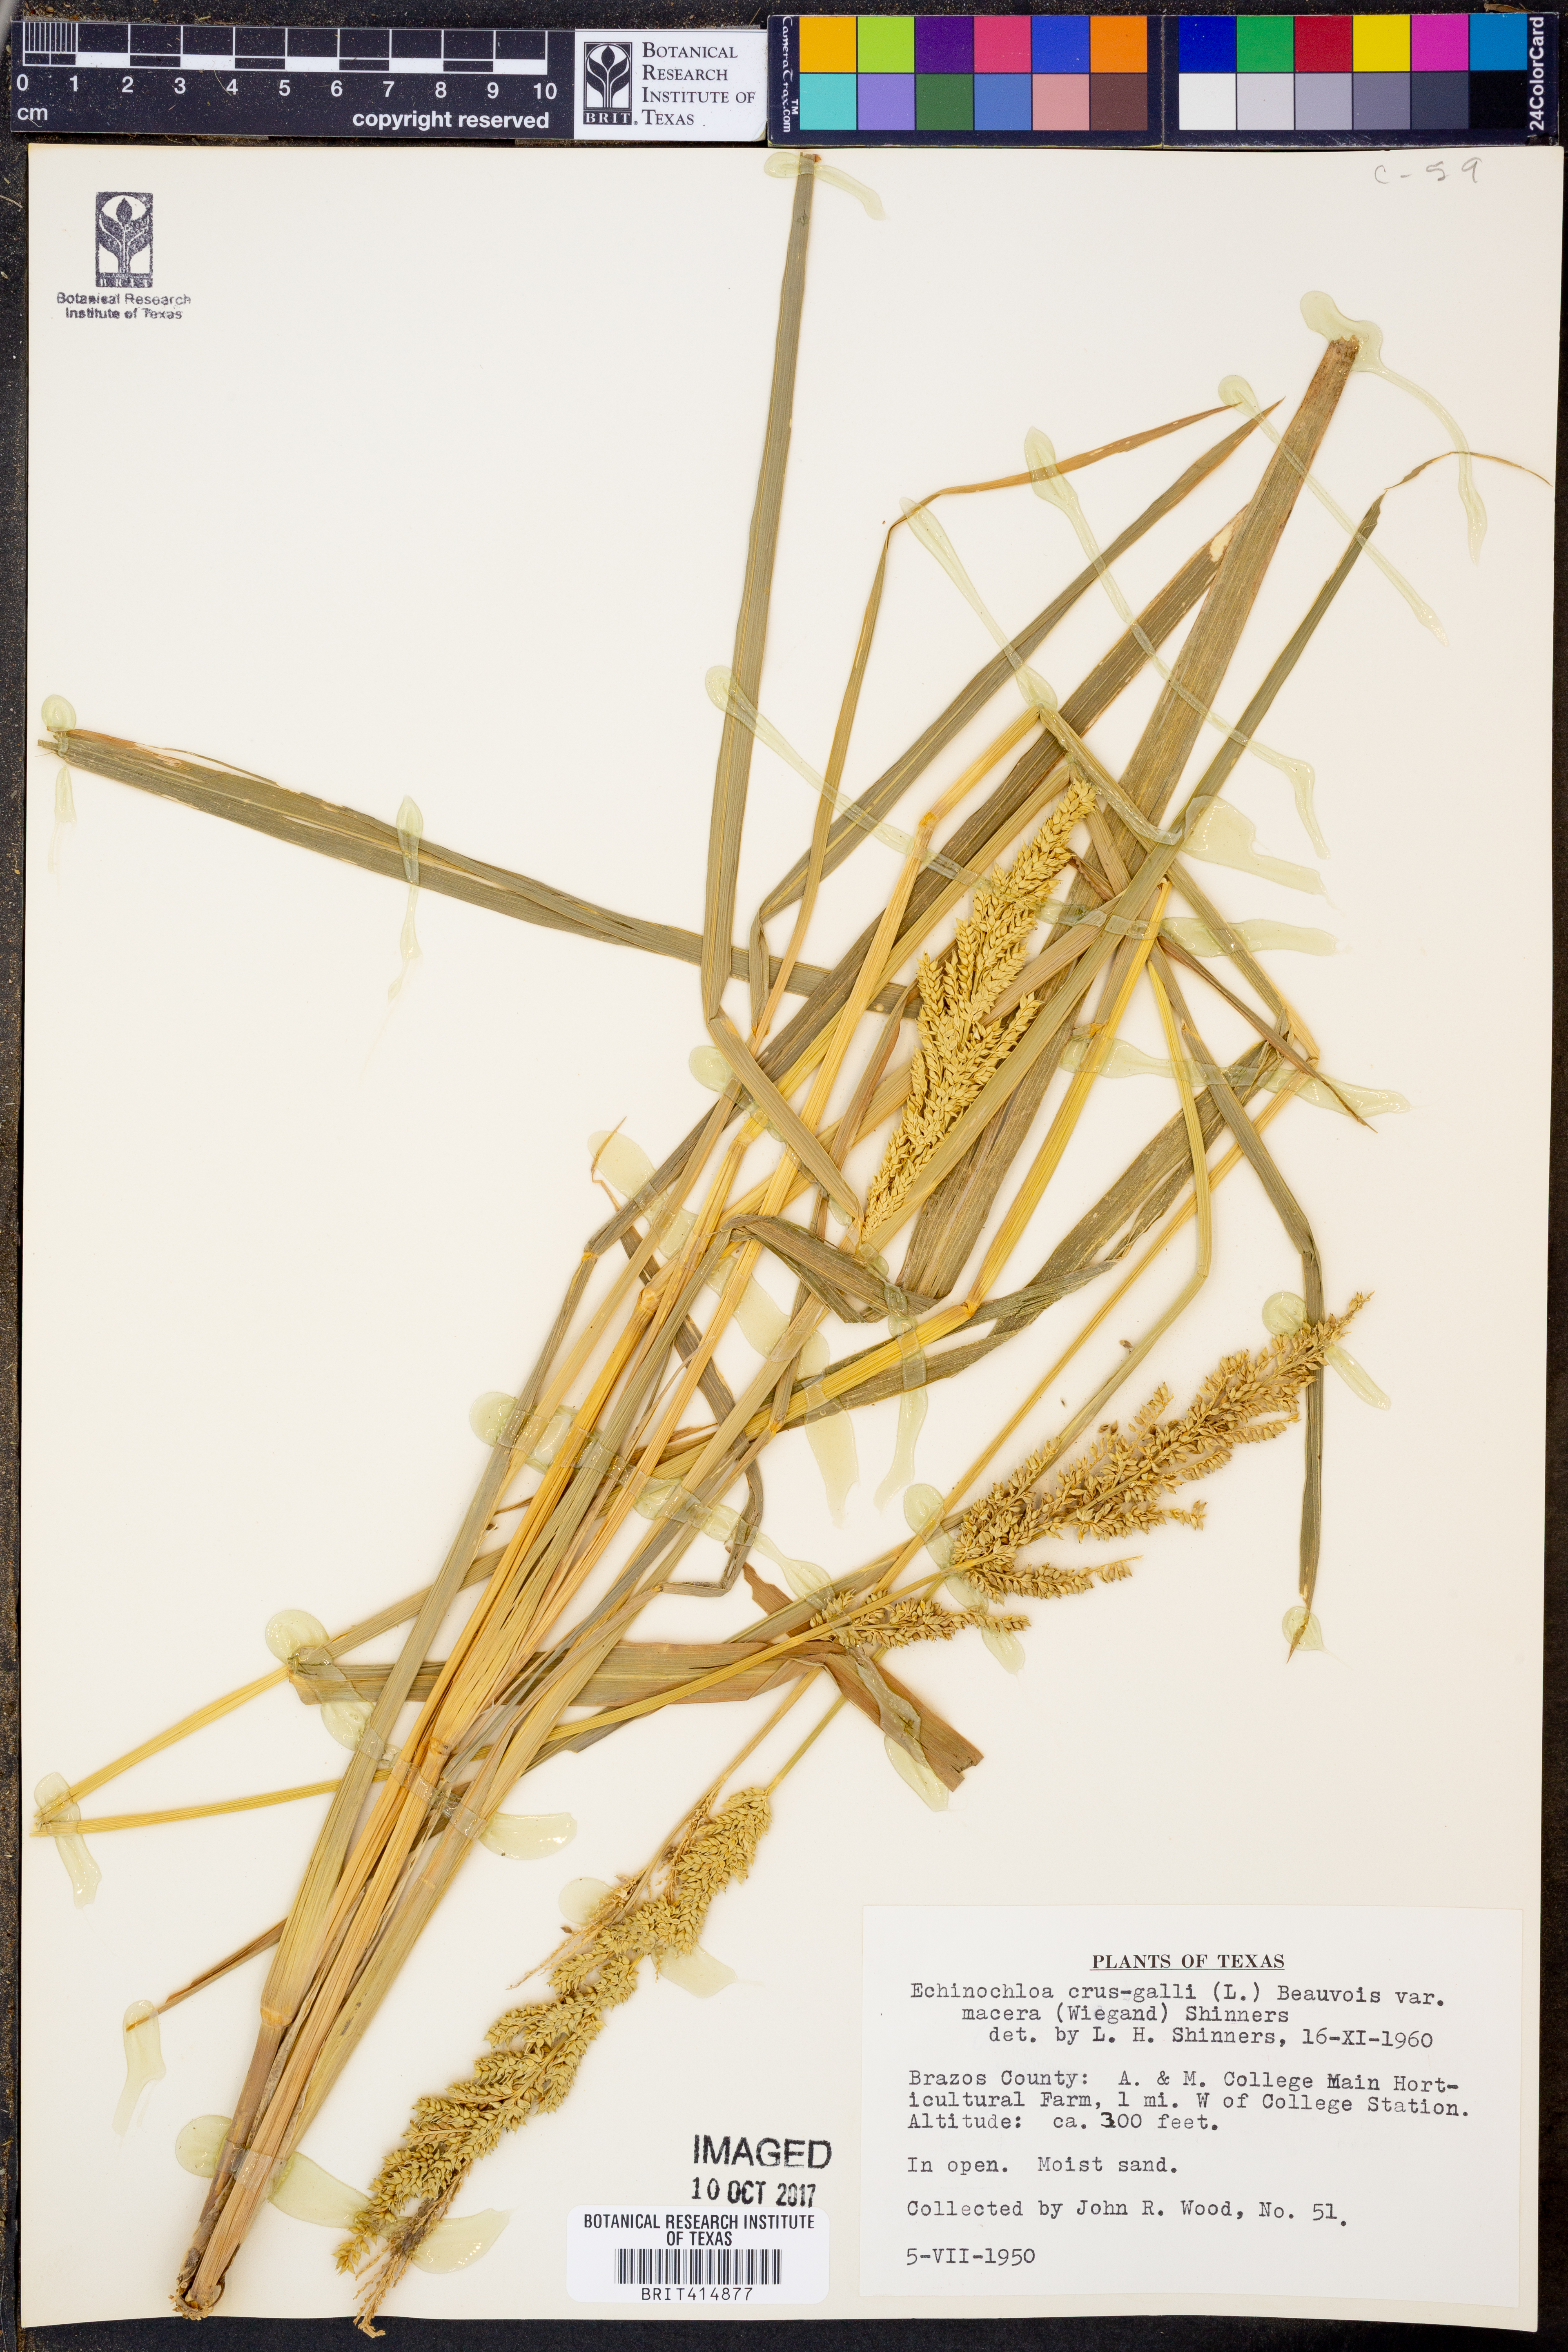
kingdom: Plantae
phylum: Tracheophyta
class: Liliopsida
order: Poales
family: Poaceae
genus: Echinochloa
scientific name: Echinochloa crus-galli
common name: Cockspur
